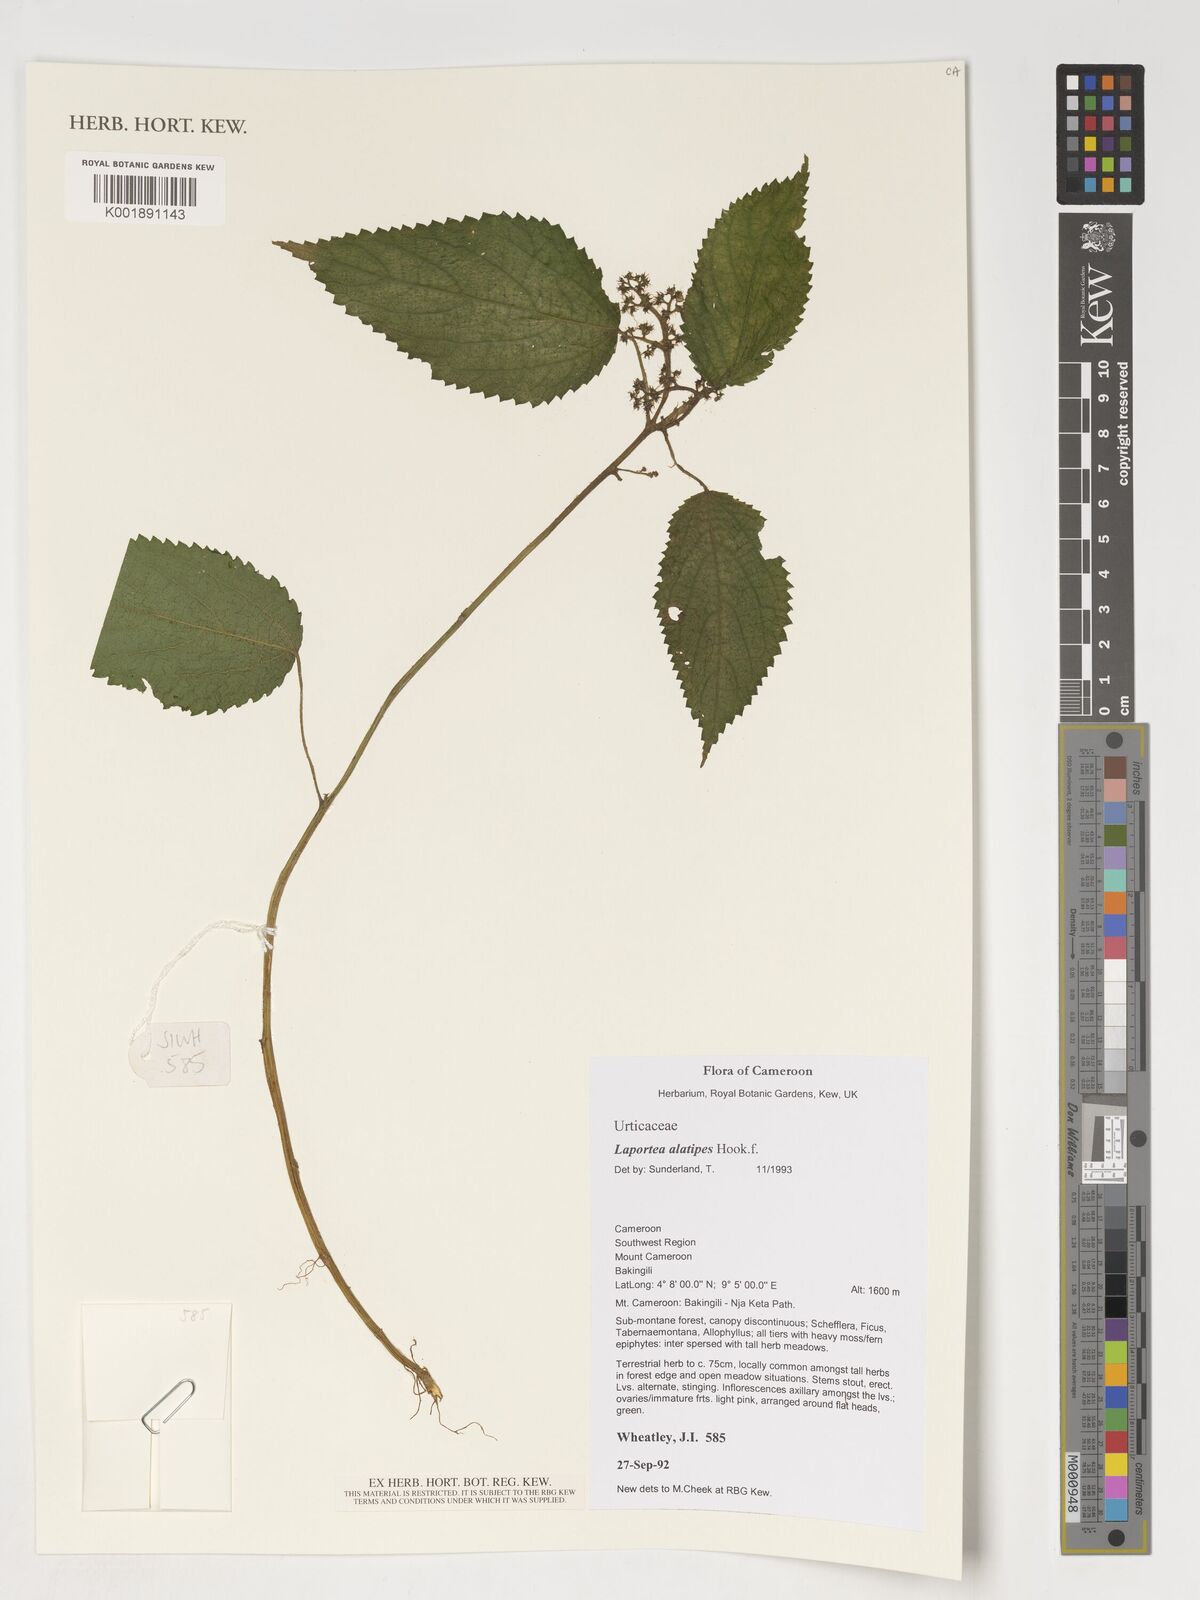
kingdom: Plantae
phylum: Tracheophyta
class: Magnoliopsida
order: Rosales
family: Urticaceae
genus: Laportea
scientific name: Laportea alatipes
